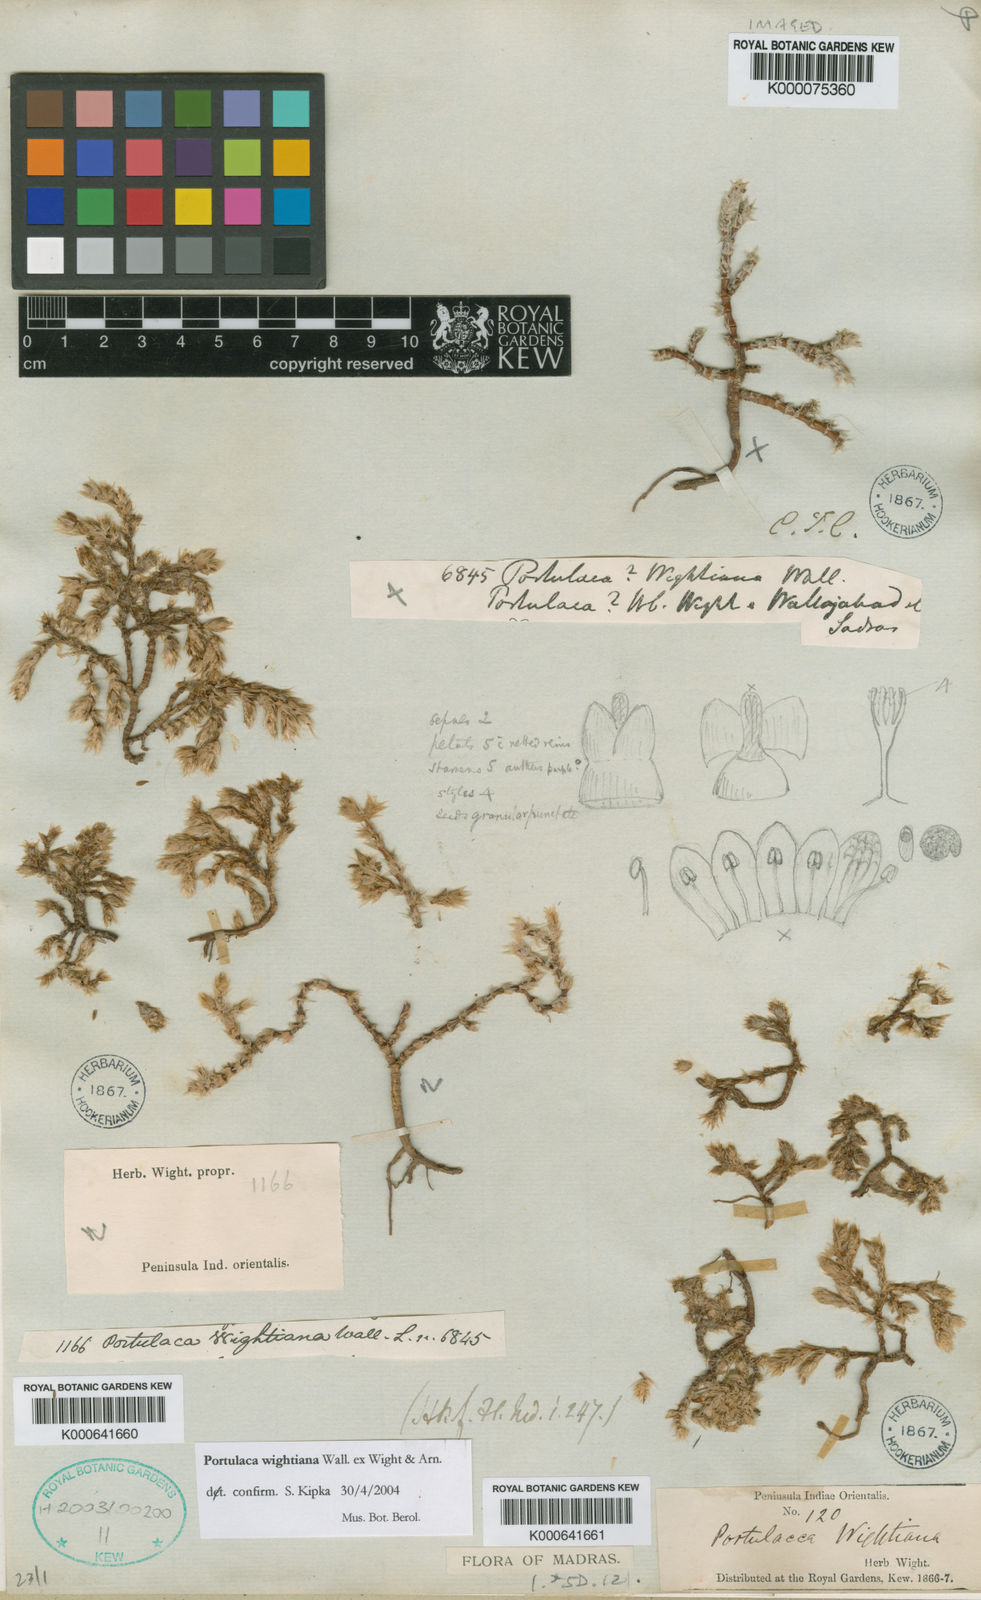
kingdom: Plantae
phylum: Tracheophyta
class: Magnoliopsida
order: Caryophyllales
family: Portulacaceae
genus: Portulaca
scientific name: Portulaca wightiana
